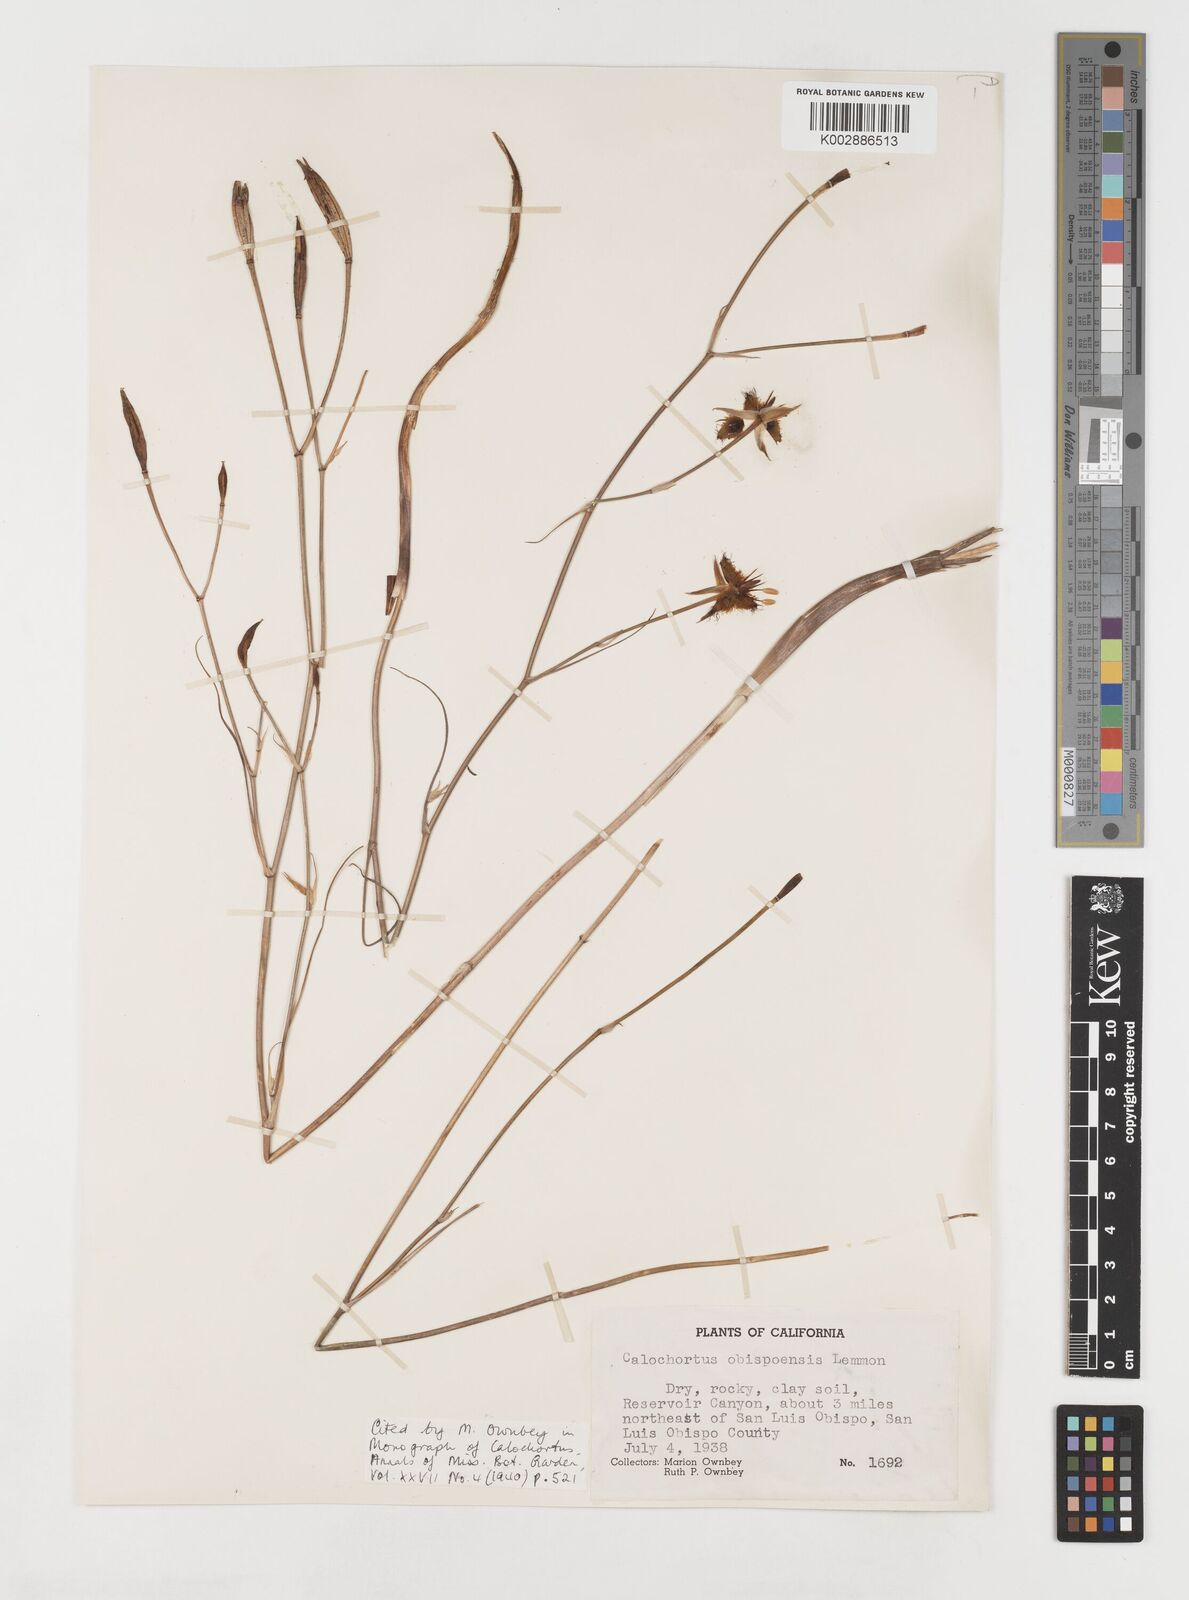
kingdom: Plantae
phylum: Tracheophyta
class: Liliopsida
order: Liliales
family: Liliaceae
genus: Calochortus
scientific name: Calochortus obispoensis
